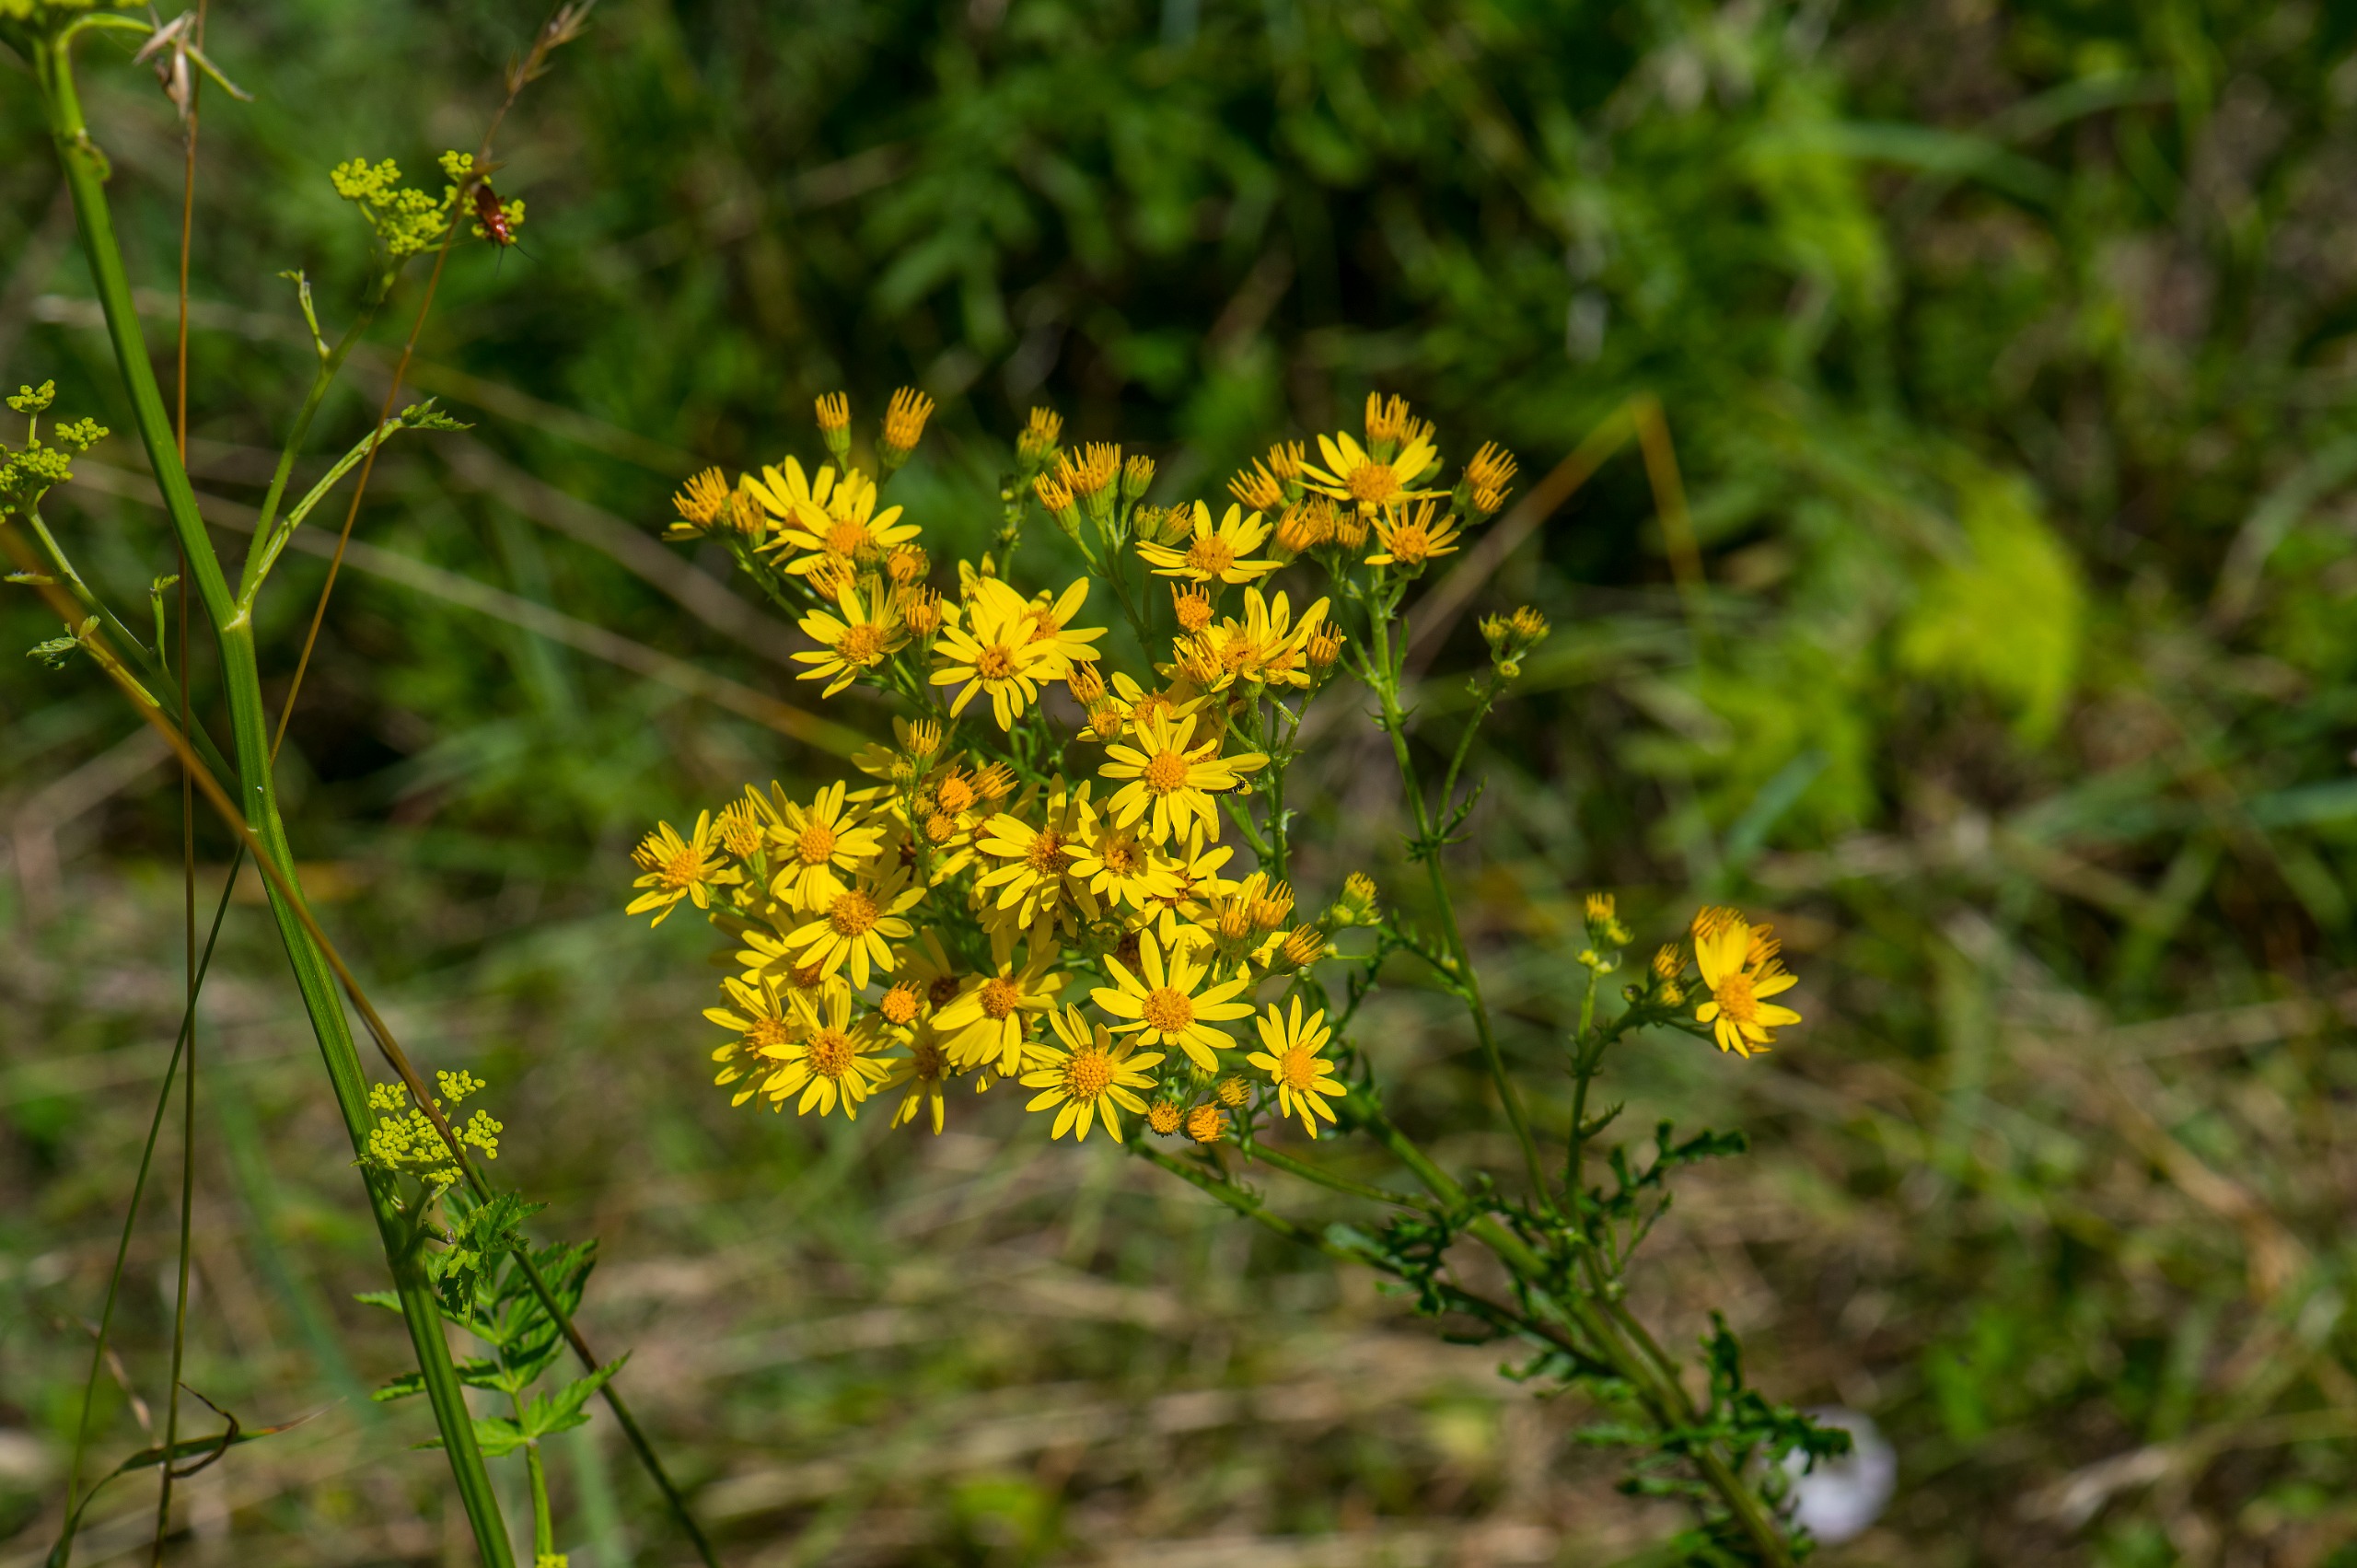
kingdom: Plantae
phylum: Tracheophyta
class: Magnoliopsida
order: Asterales
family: Asteraceae
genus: Jacobaea
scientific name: Jacobaea vulgaris
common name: Eng-brandbæger
